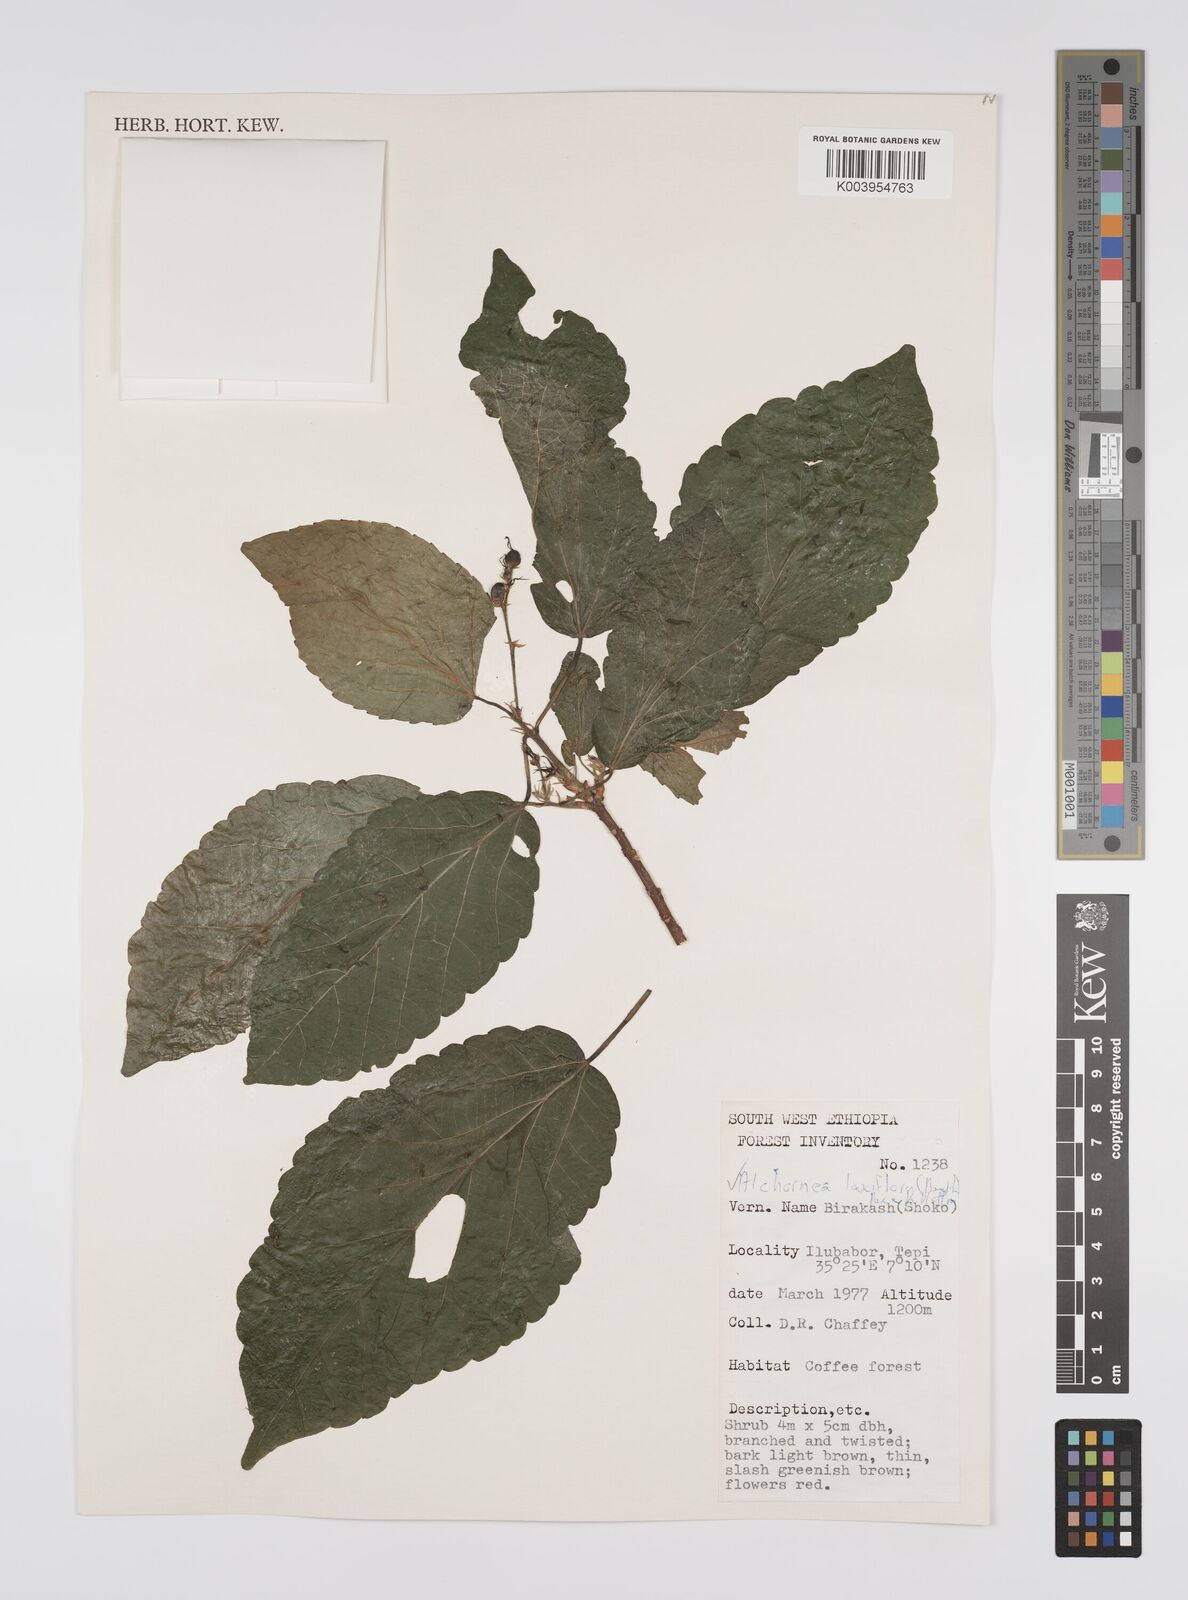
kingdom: Plantae
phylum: Tracheophyta
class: Magnoliopsida
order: Malpighiales
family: Euphorbiaceae
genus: Alchornea
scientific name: Alchornea laxiflora
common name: Lowveld bead-string
